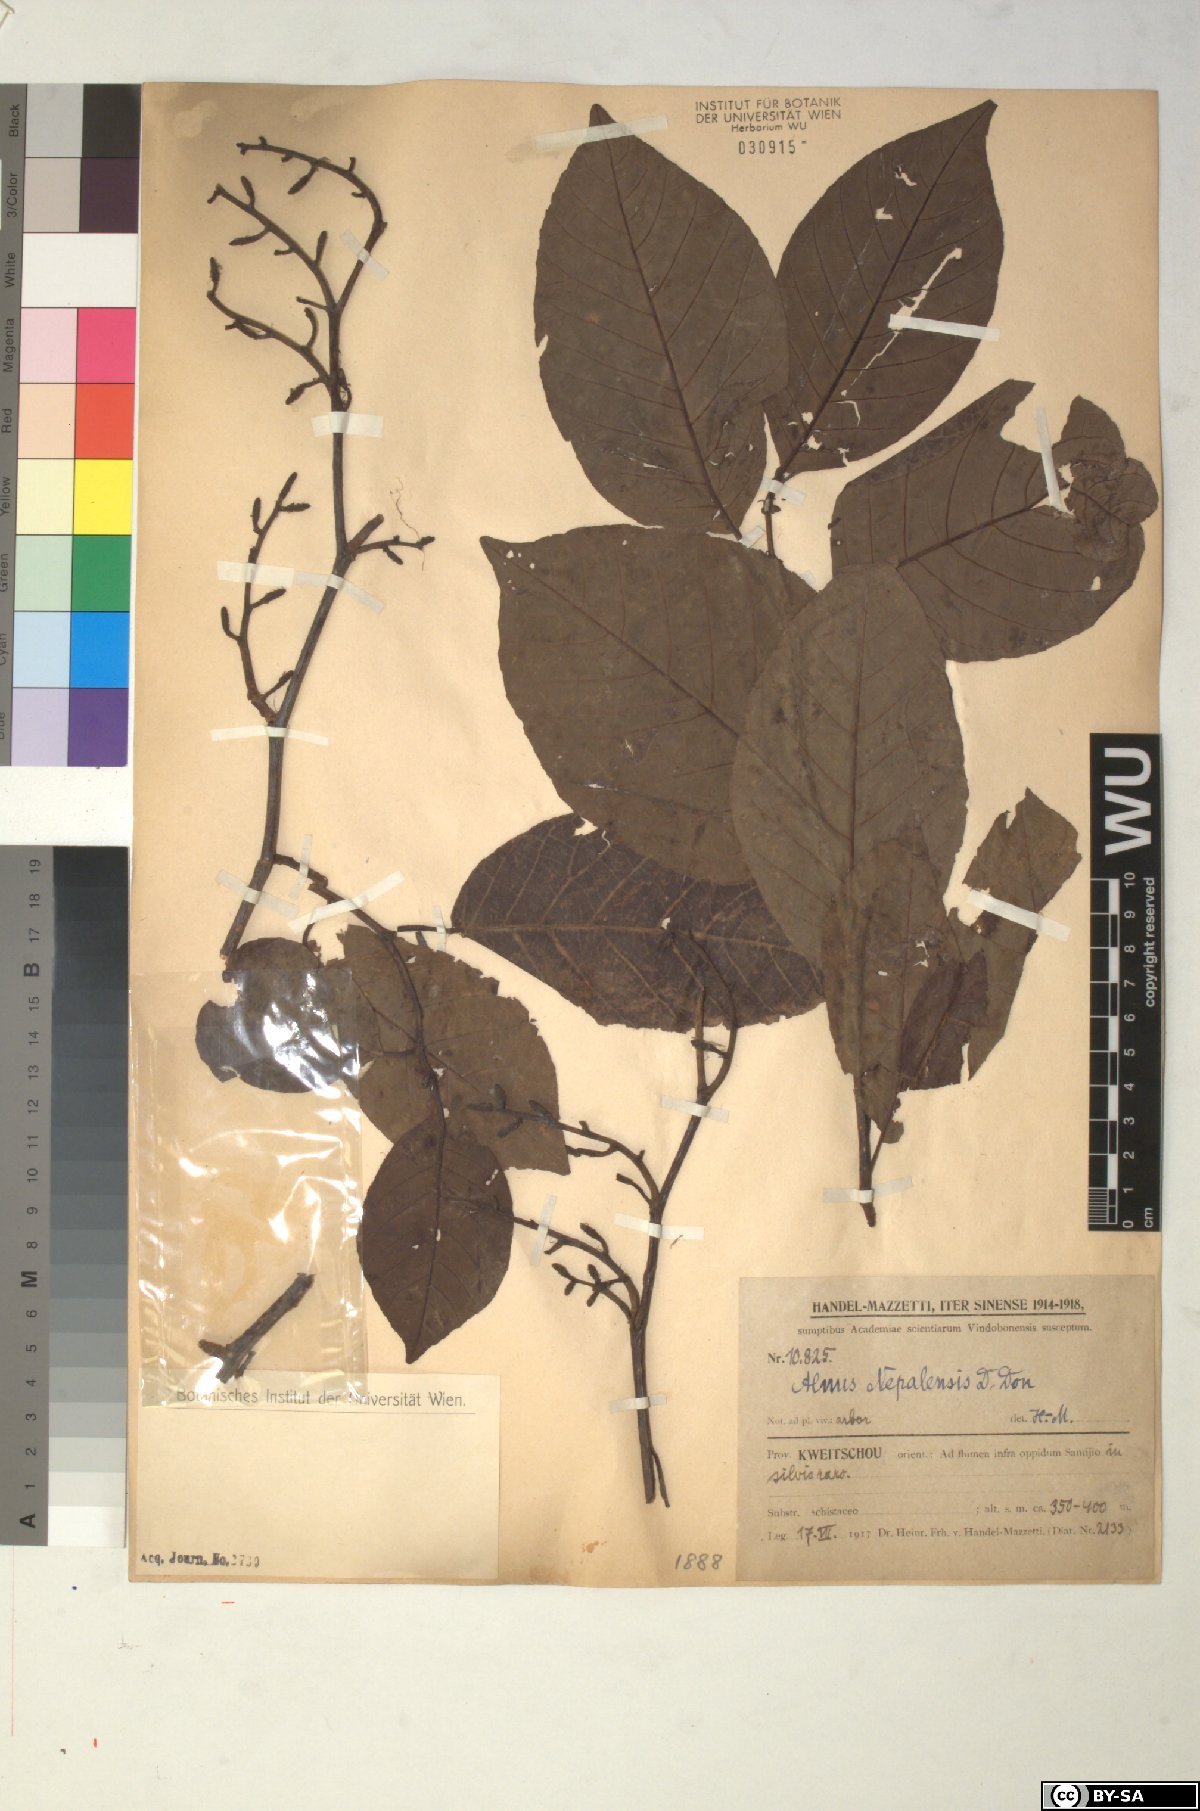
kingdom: Plantae
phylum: Tracheophyta
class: Magnoliopsida
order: Fagales
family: Betulaceae
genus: Alnus
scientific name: Alnus nepalensis
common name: Nepal alder
